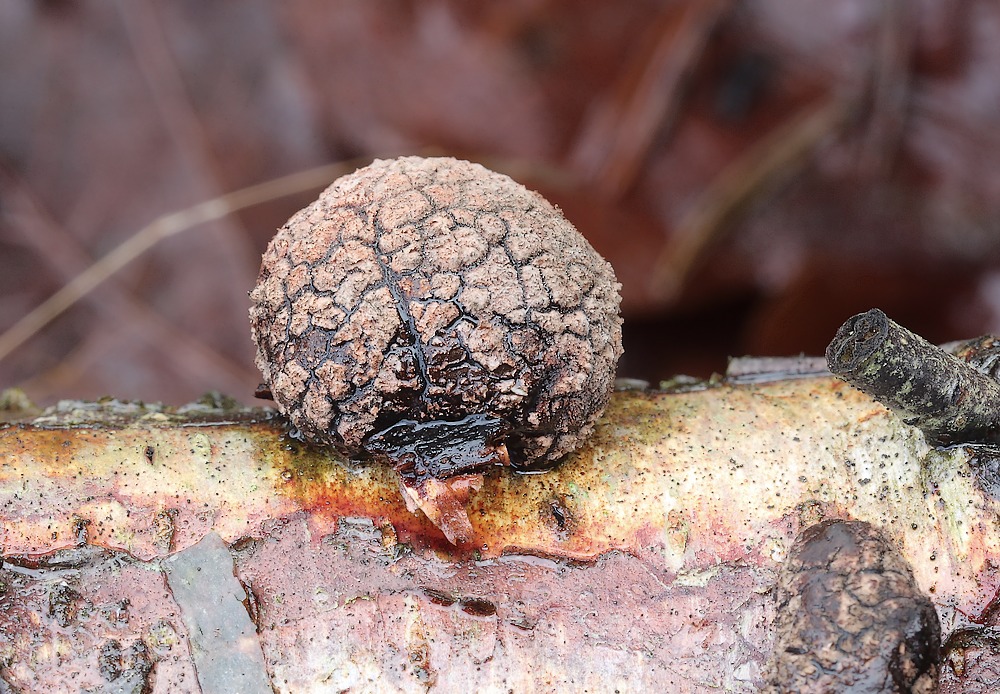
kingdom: Fungi
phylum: Ascomycota
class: Sordariomycetes
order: Xylariales
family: Hypoxylaceae
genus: Daldinia
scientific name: Daldinia
